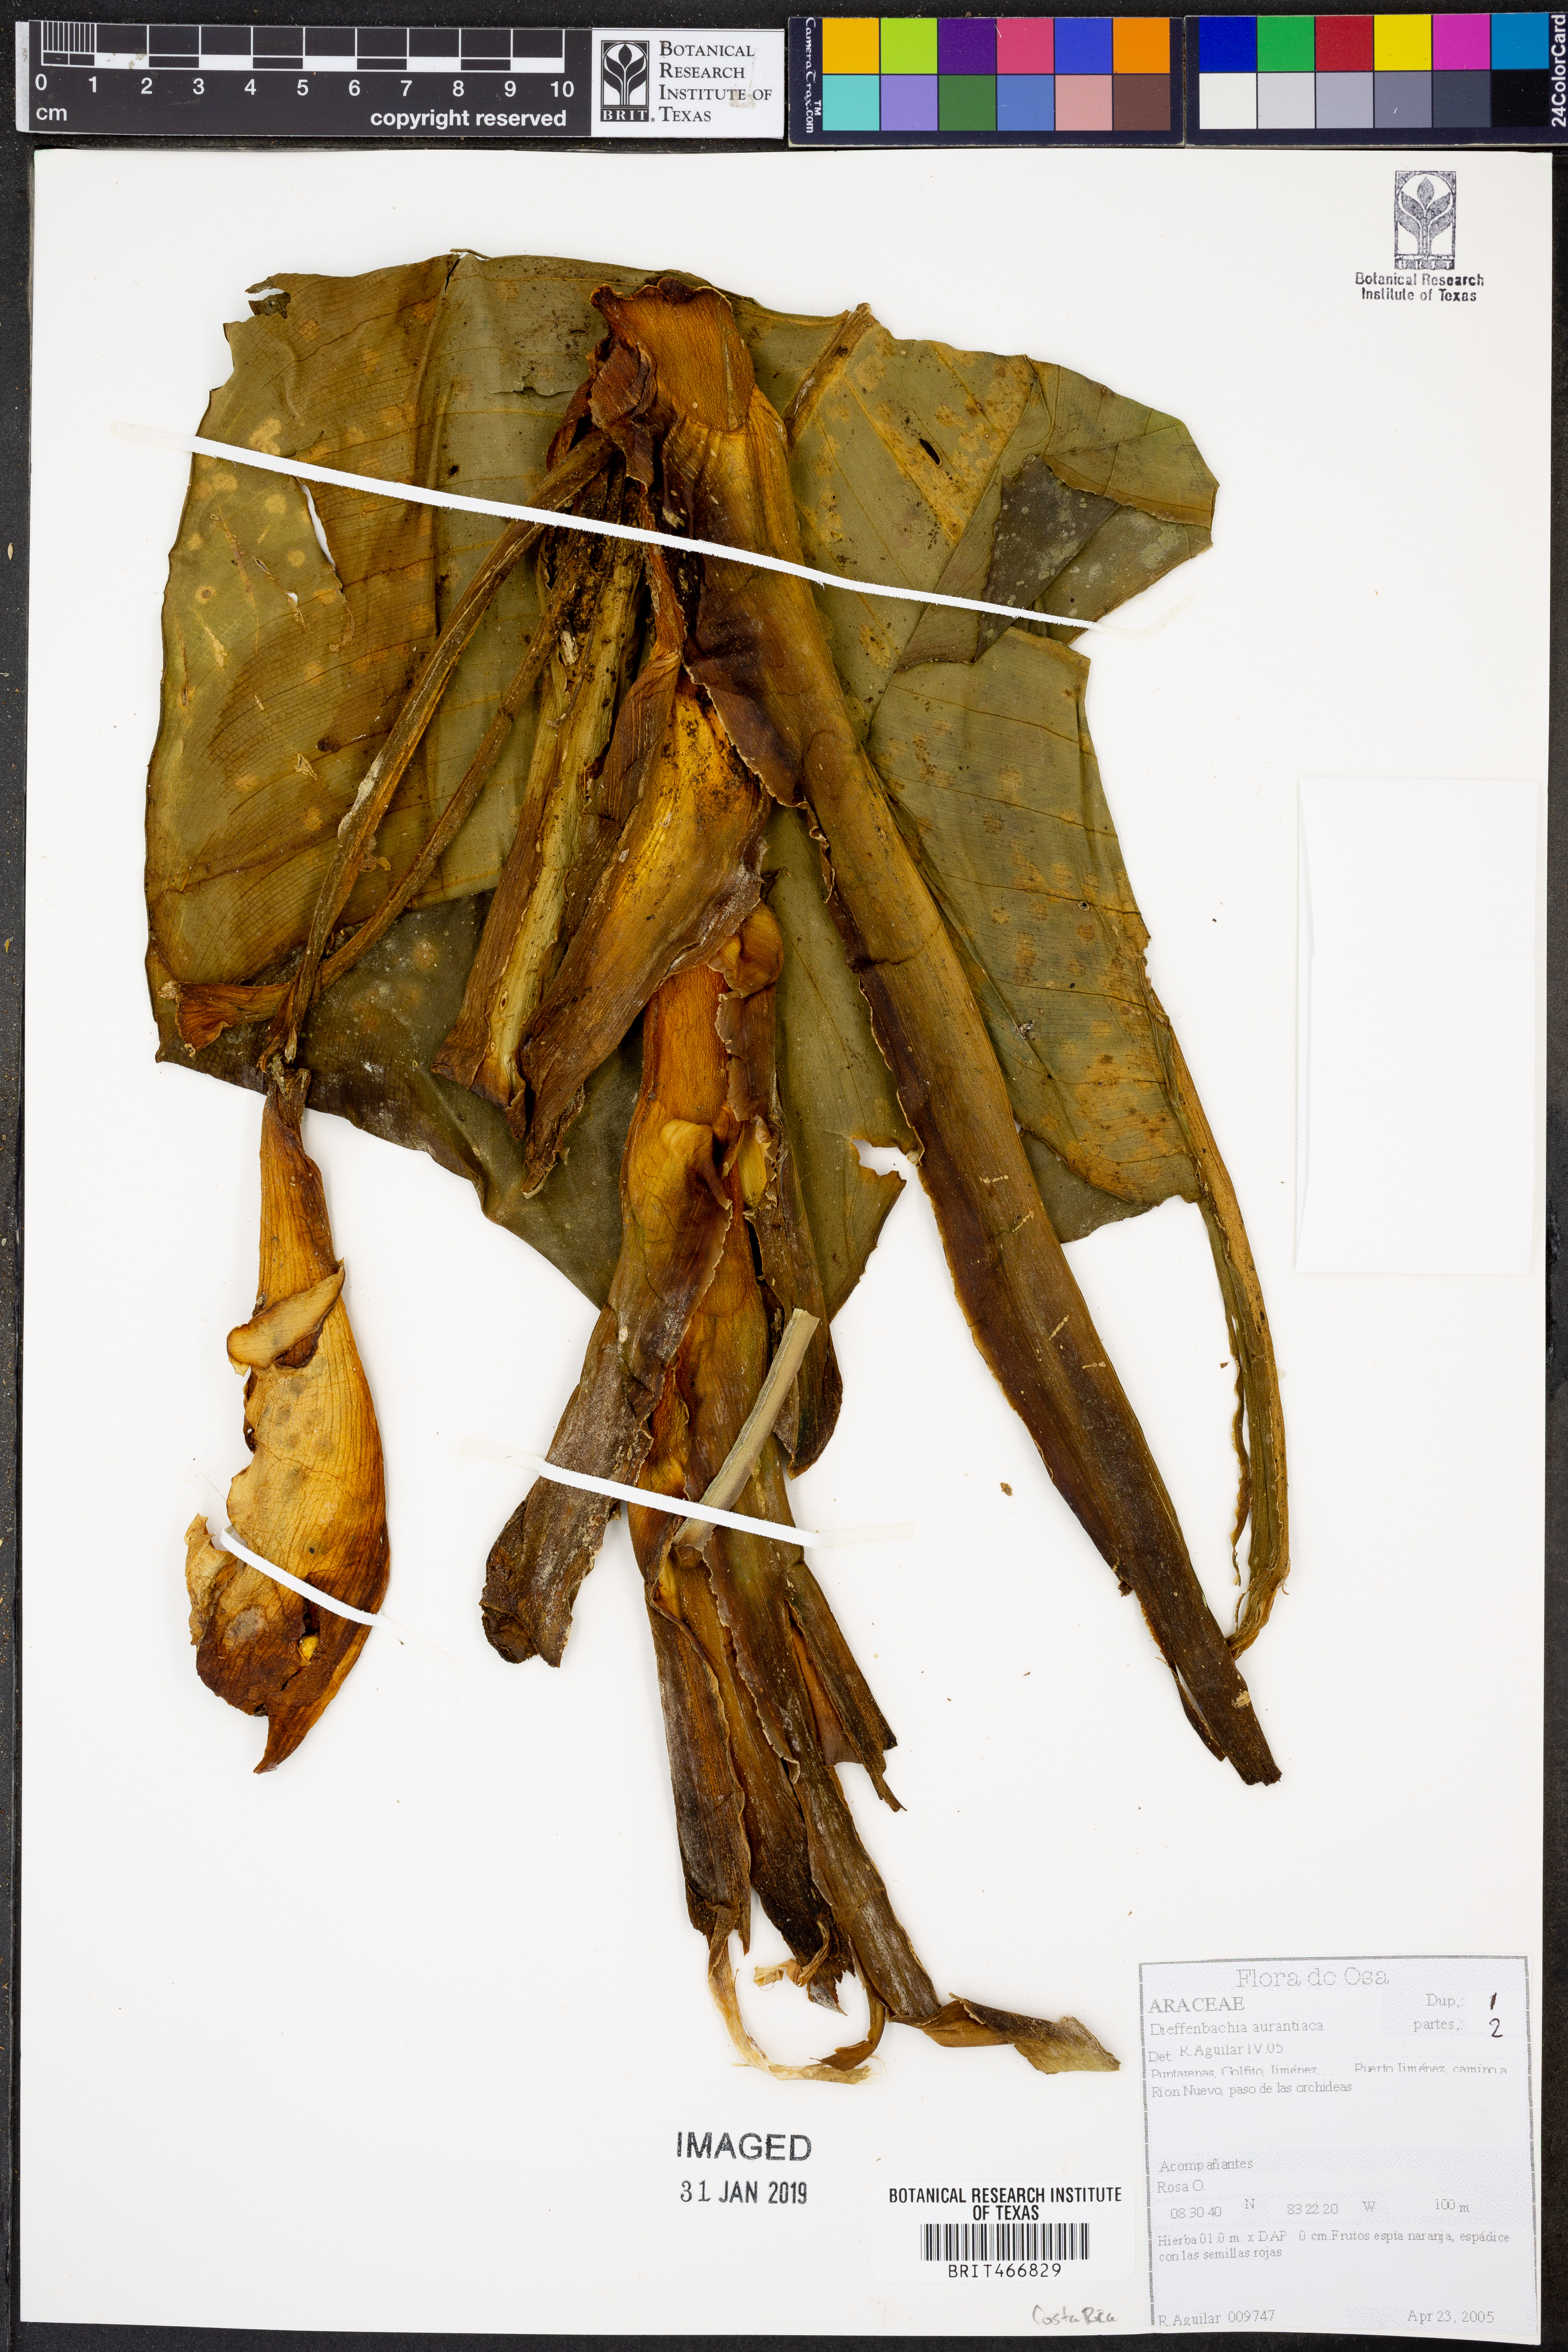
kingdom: Plantae
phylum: Tracheophyta
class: Liliopsida
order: Alismatales
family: Araceae
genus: Dieffenbachia
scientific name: Dieffenbachia aurantiaca
